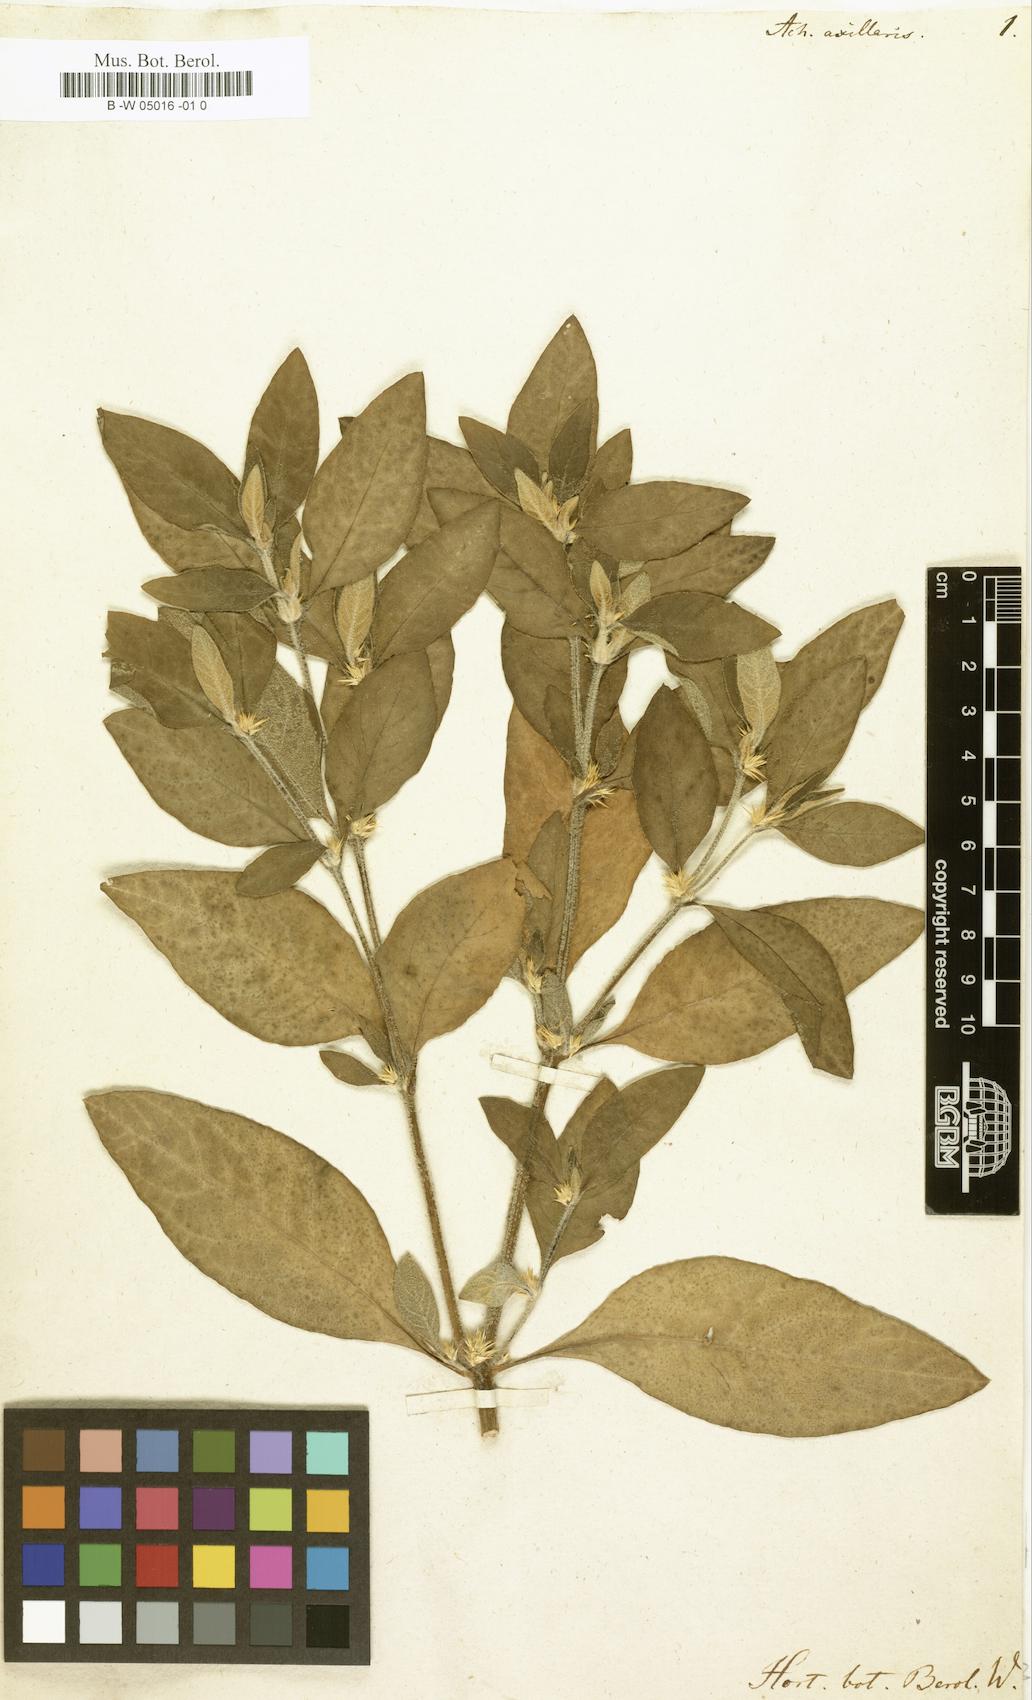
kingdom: Plantae
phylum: Tracheophyta
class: Magnoliopsida
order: Caryophyllales
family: Amaranthaceae
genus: Alternanthera
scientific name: Alternanthera axillaris
